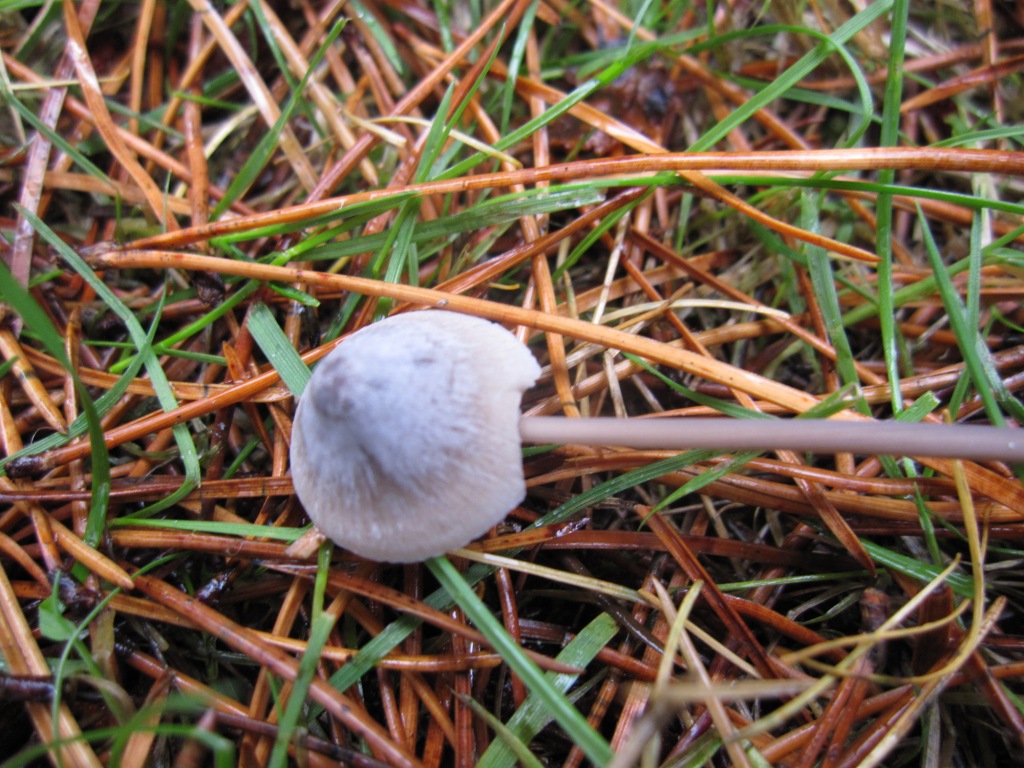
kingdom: Fungi
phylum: Basidiomycota
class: Agaricomycetes
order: Agaricales
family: Mycenaceae
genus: Mycena
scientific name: Mycena filopes
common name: jod-huesvamp
